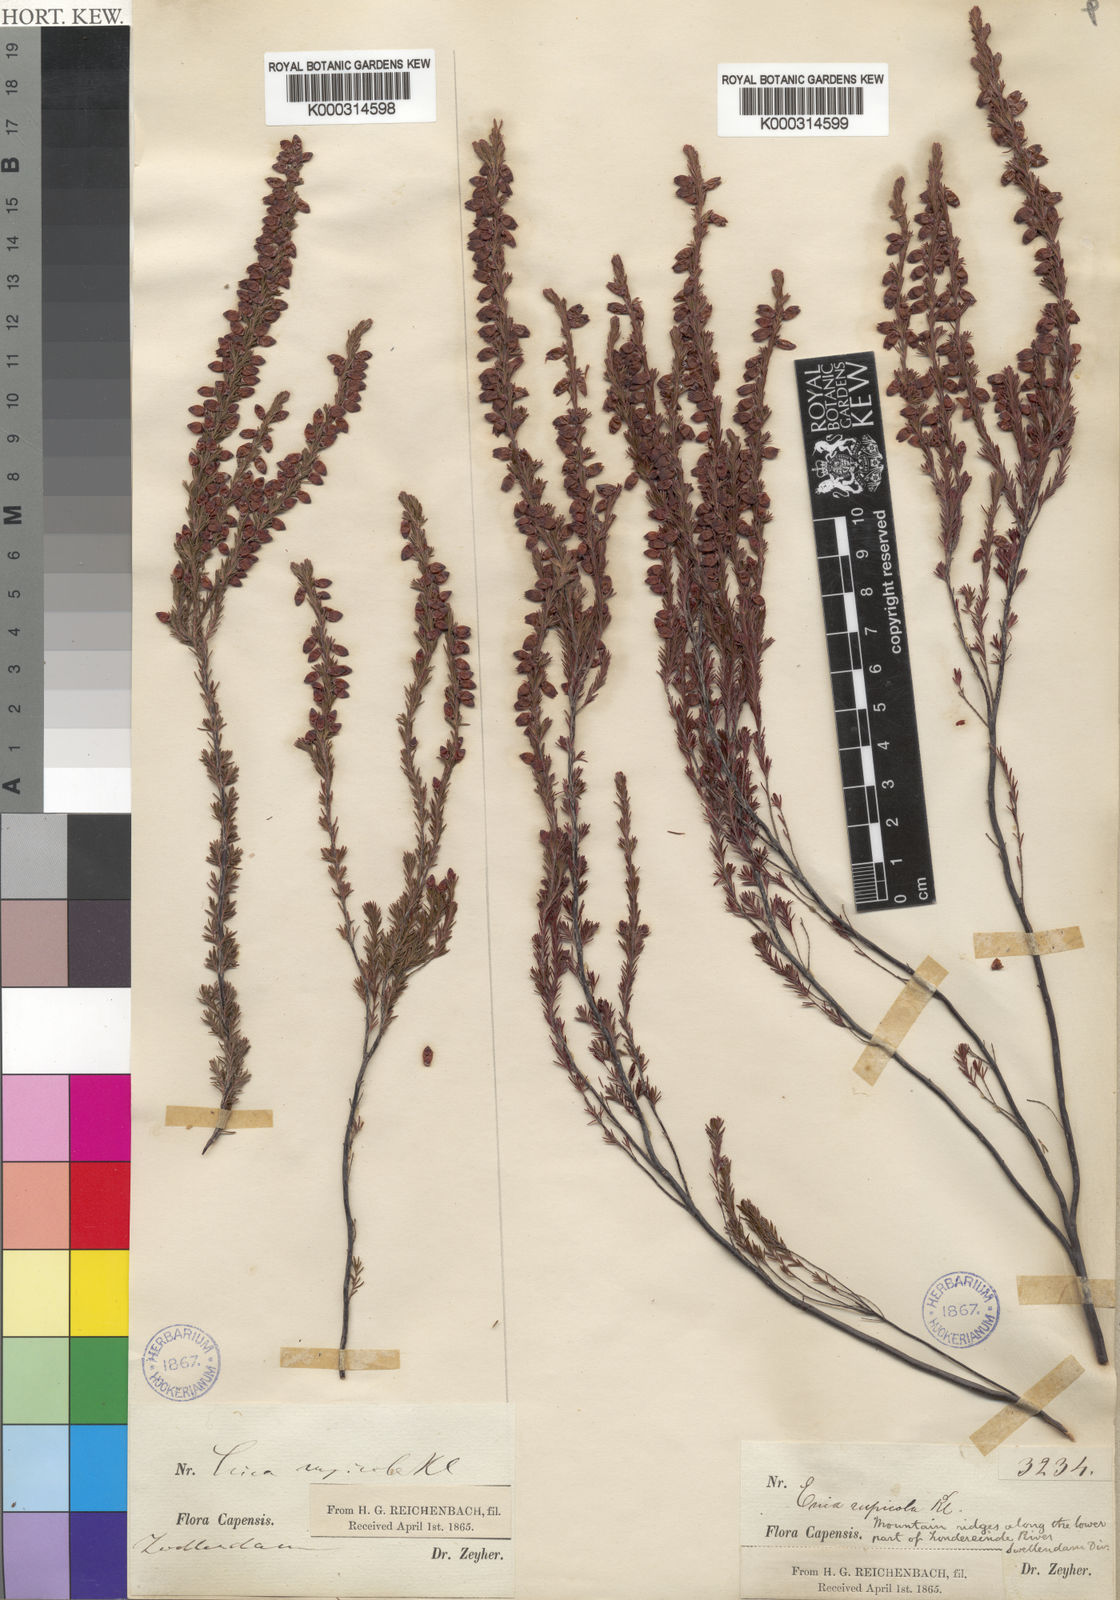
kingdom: Plantae
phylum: Tracheophyta
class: Magnoliopsida
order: Ericales
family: Ericaceae
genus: Erica
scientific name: Erica rupicola
